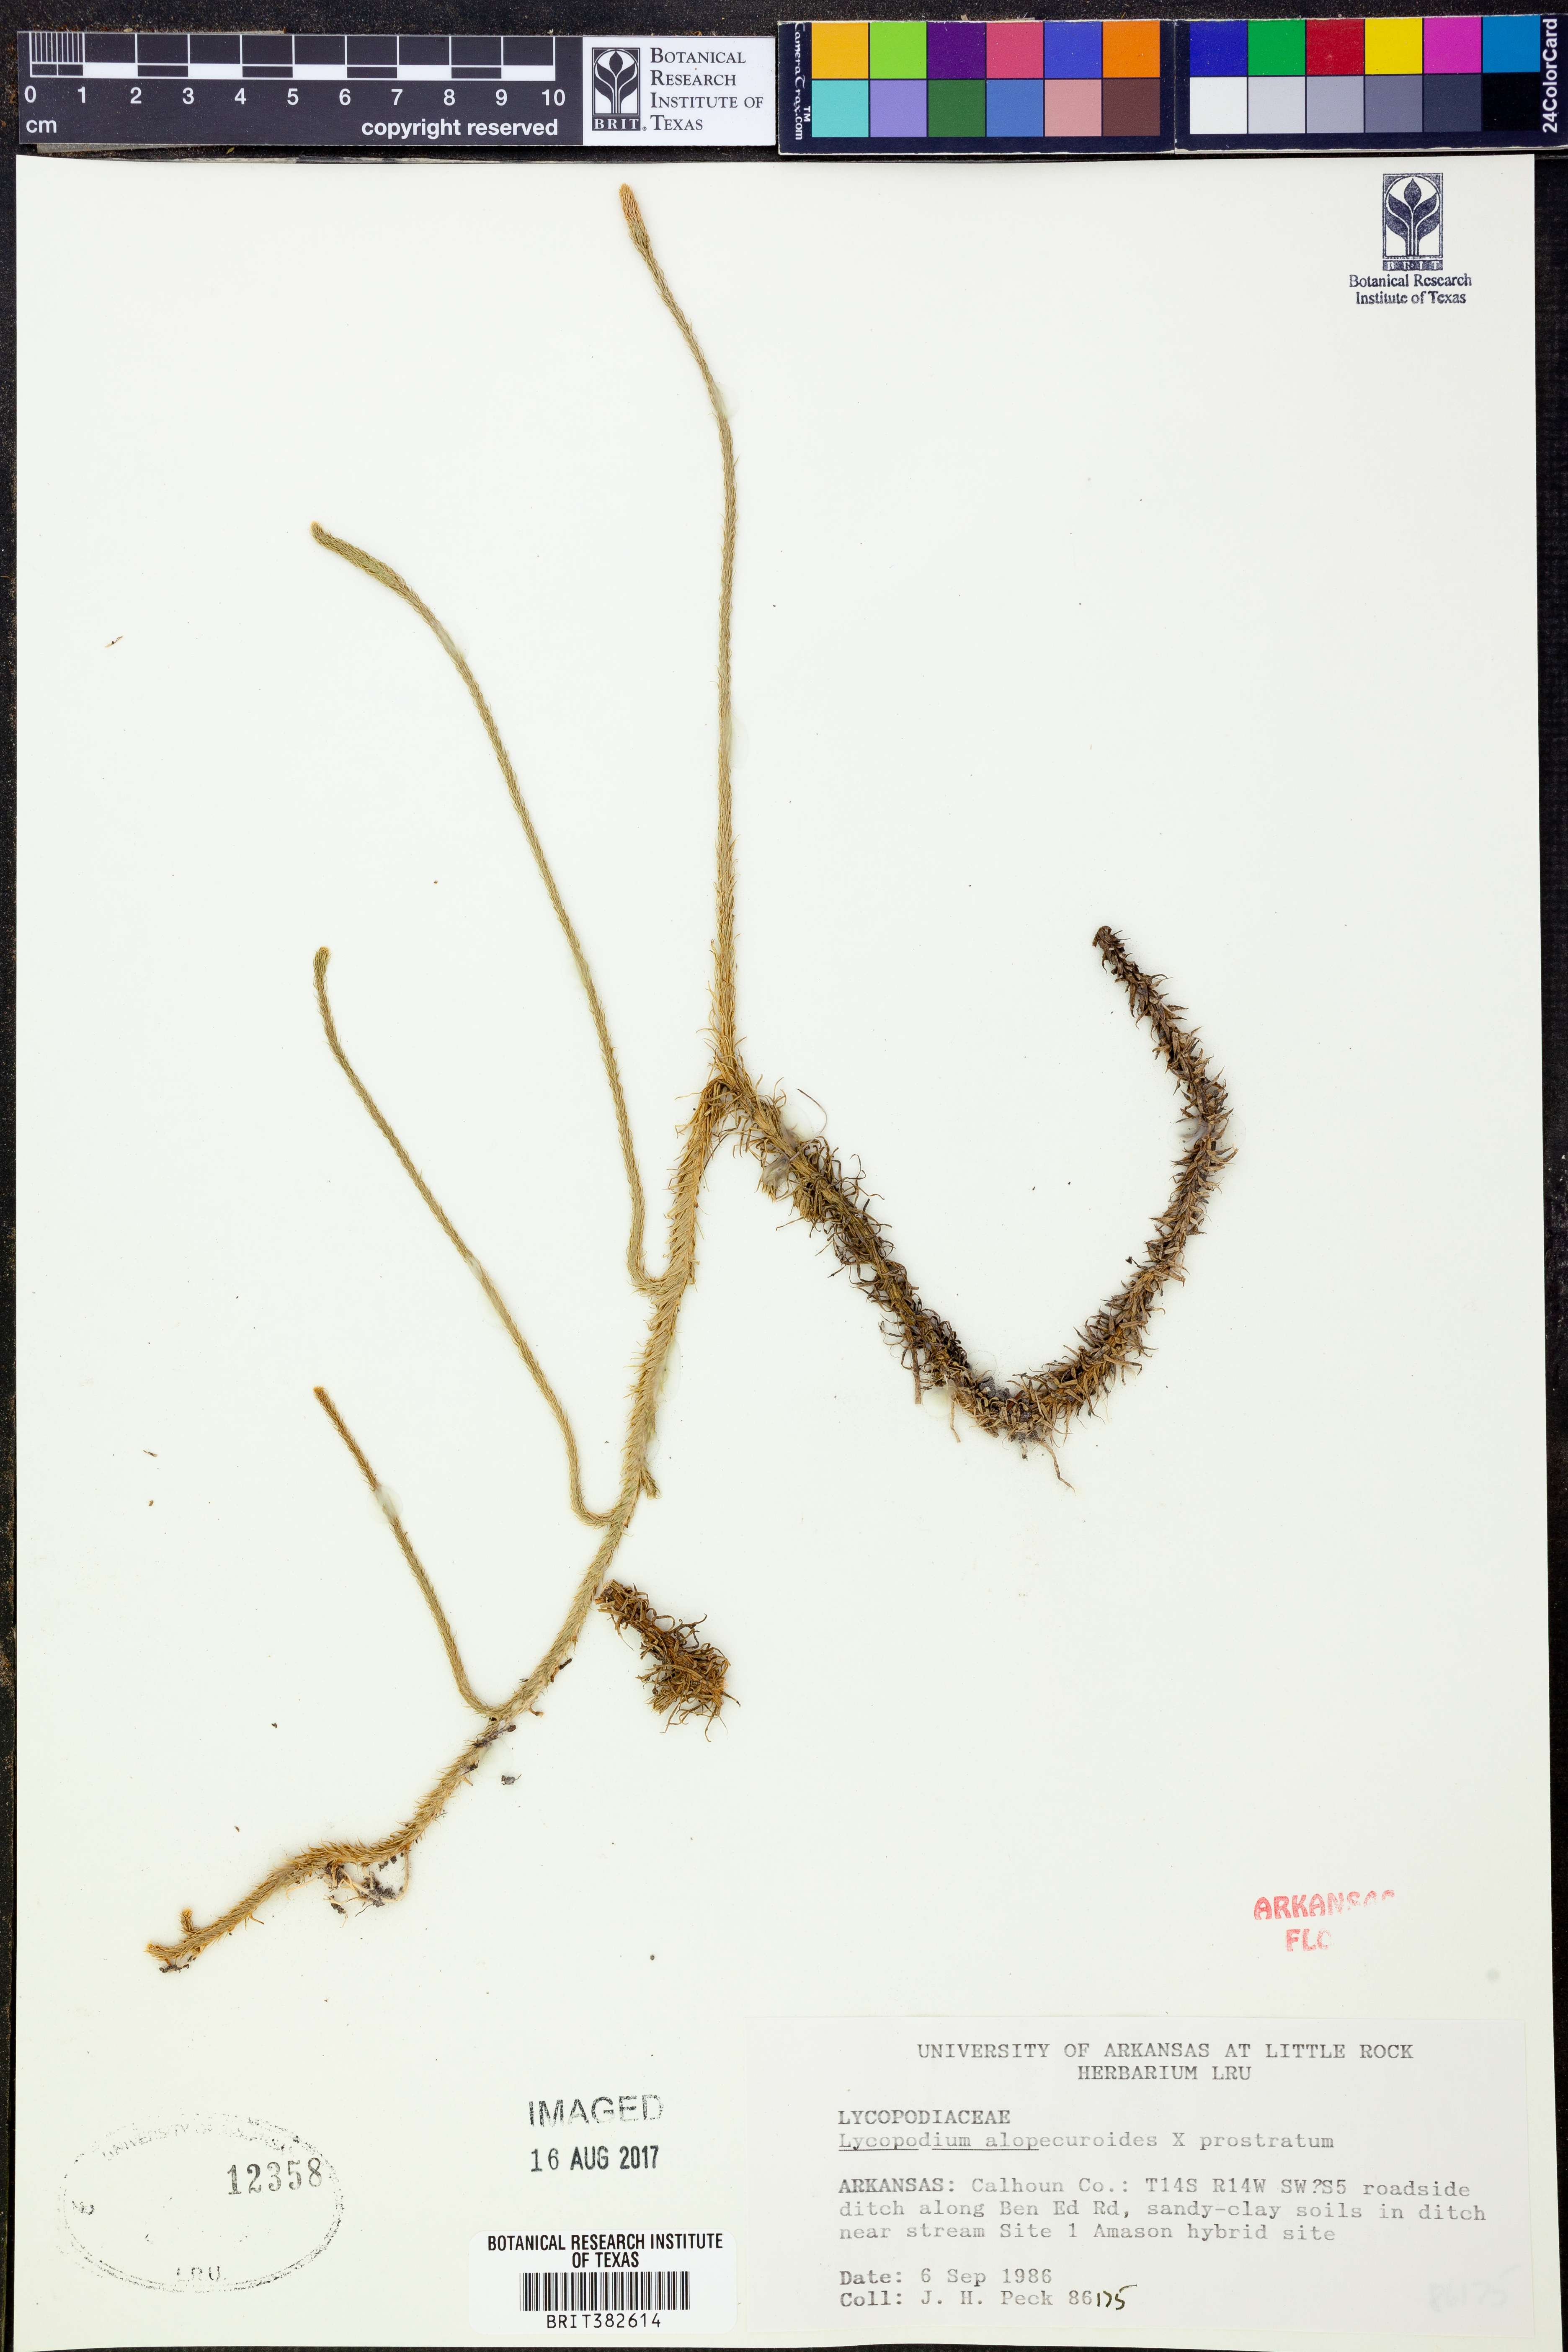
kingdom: Plantae
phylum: Tracheophyta
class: Lycopodiopsida
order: Lycopodiales
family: Lycopodiaceae
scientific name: Lycopodiaceae
